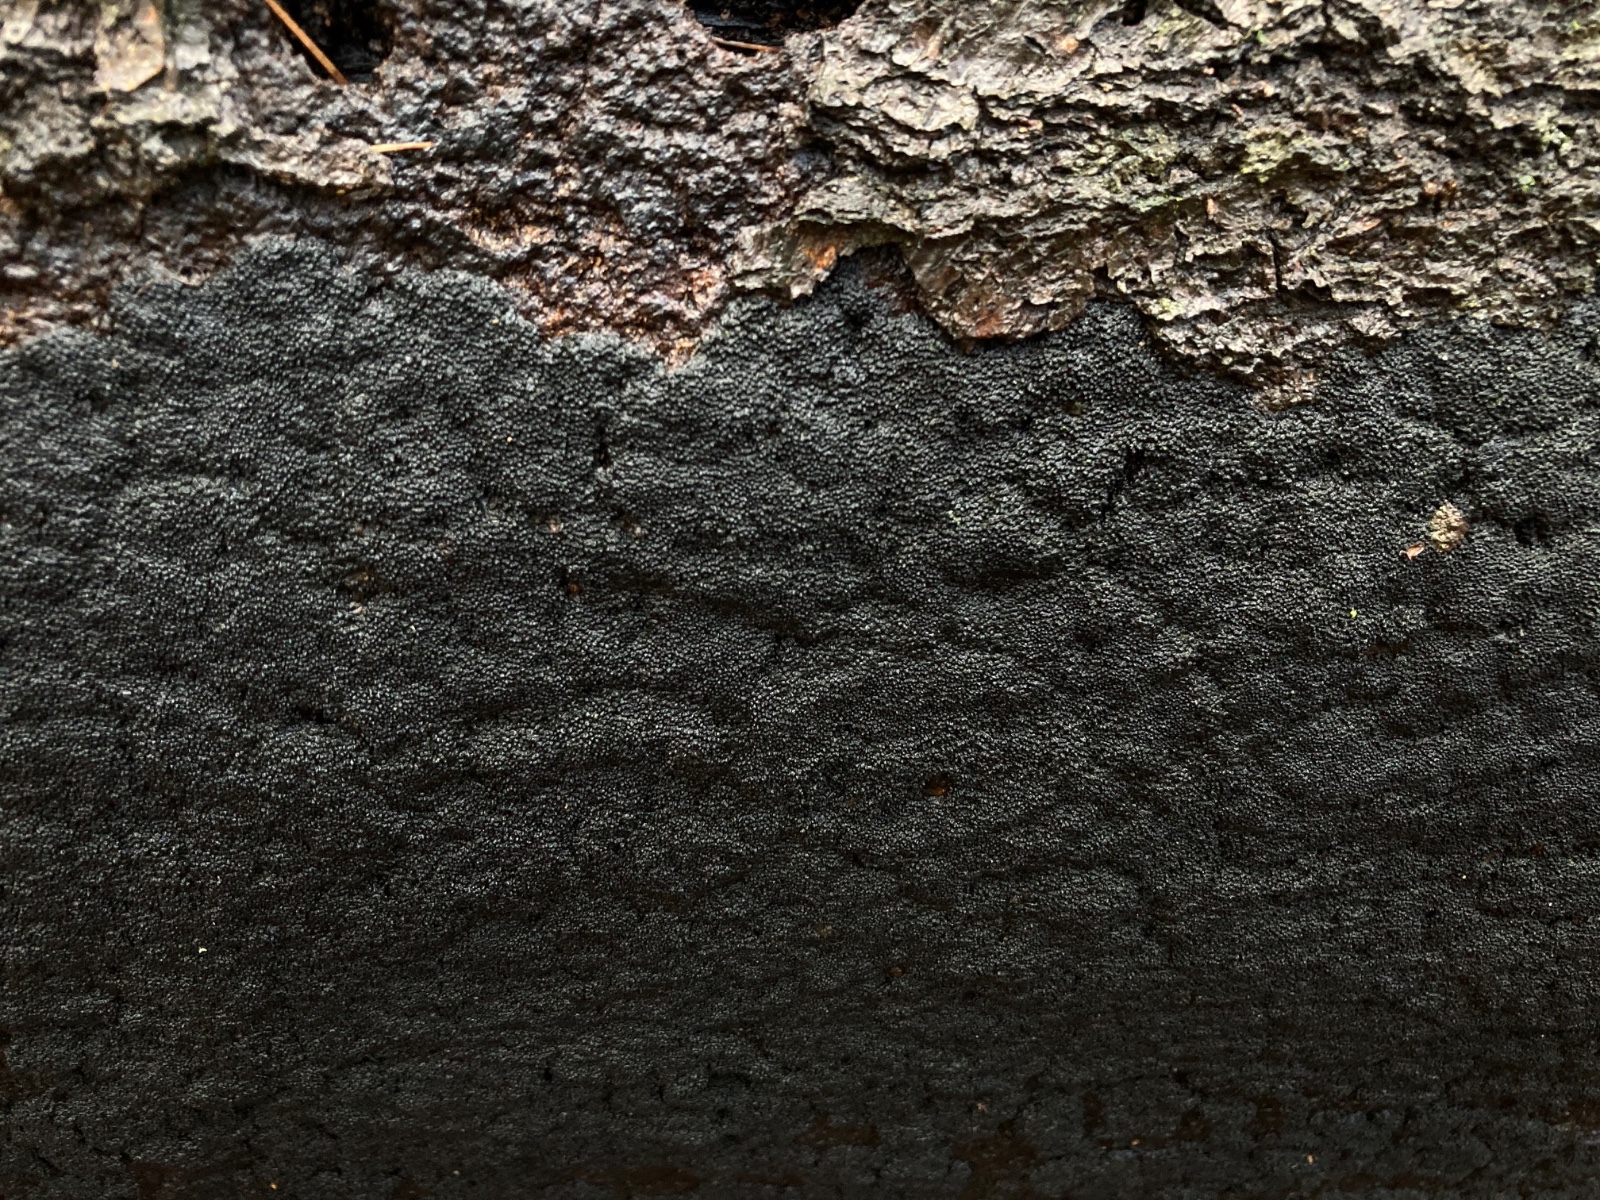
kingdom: Fungi
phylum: Ascomycota
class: Sordariomycetes
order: Xylariales
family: Diatrypaceae
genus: Eutypa
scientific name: Eutypa spinosa
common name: grov kulskorpe
